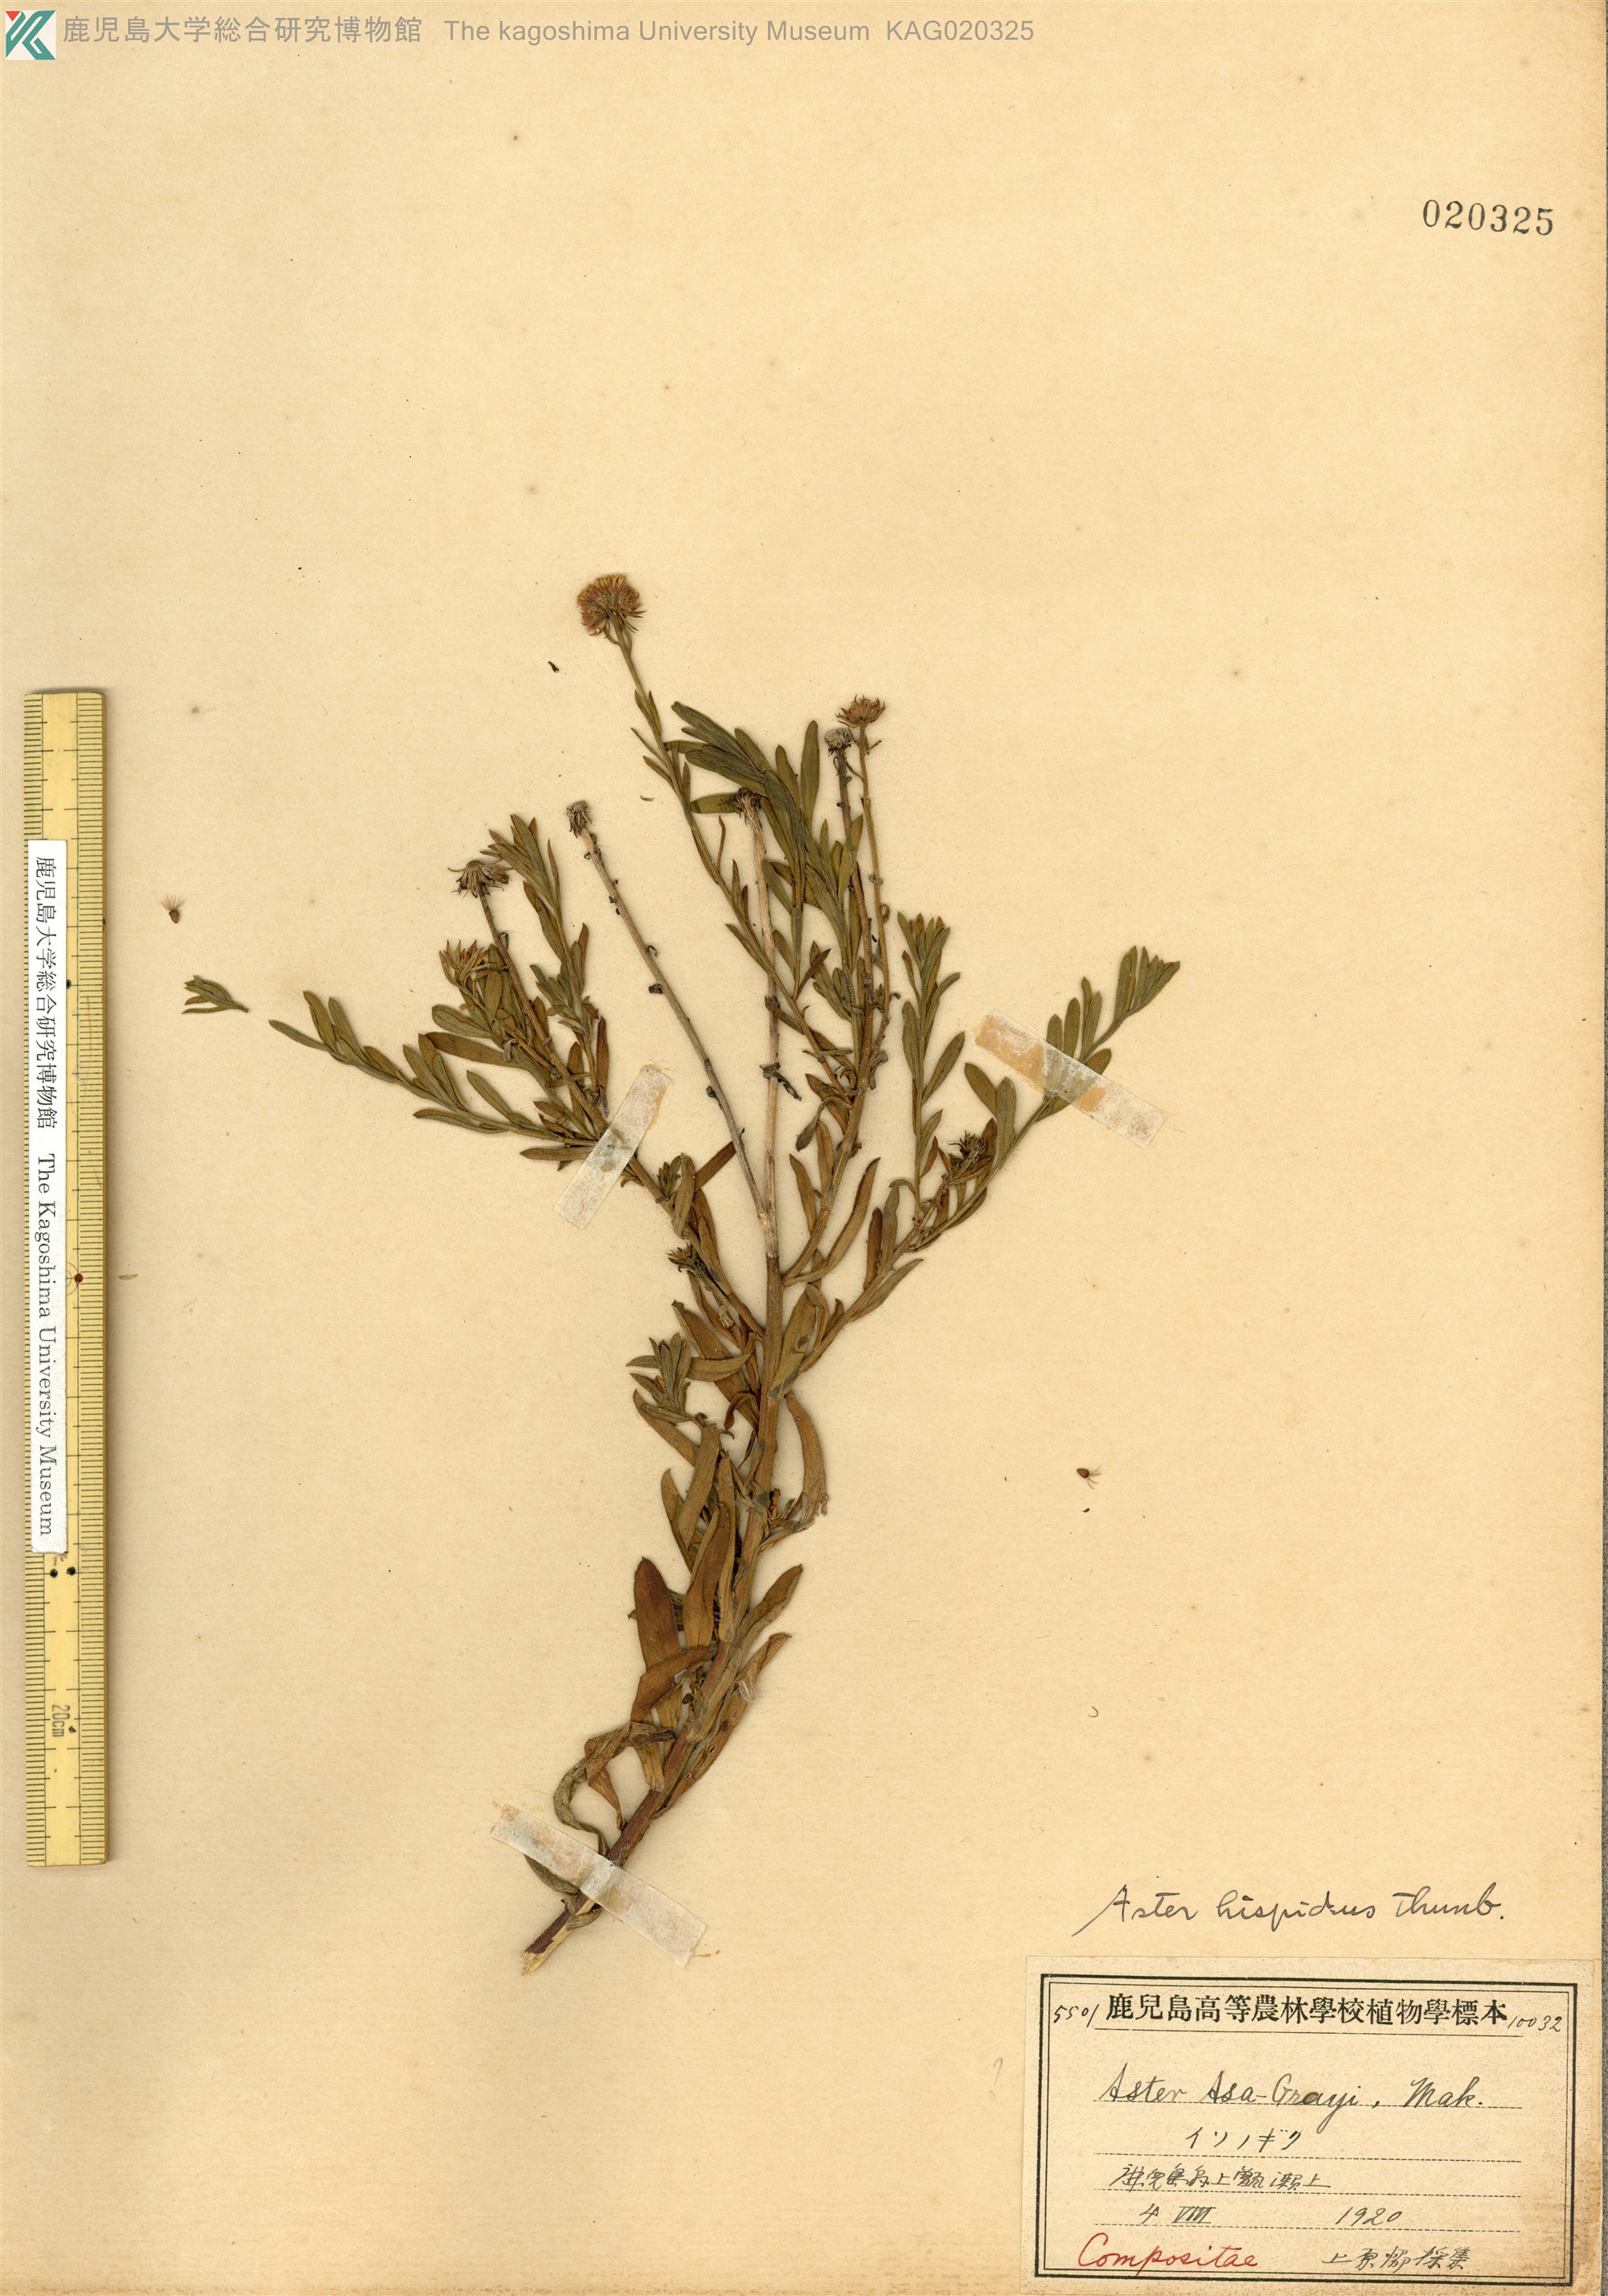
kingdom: Plantae
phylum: Tracheophyta
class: Magnoliopsida
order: Asterales
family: Asteraceae
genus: Heteropappus
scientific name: Heteropappus hispidus
